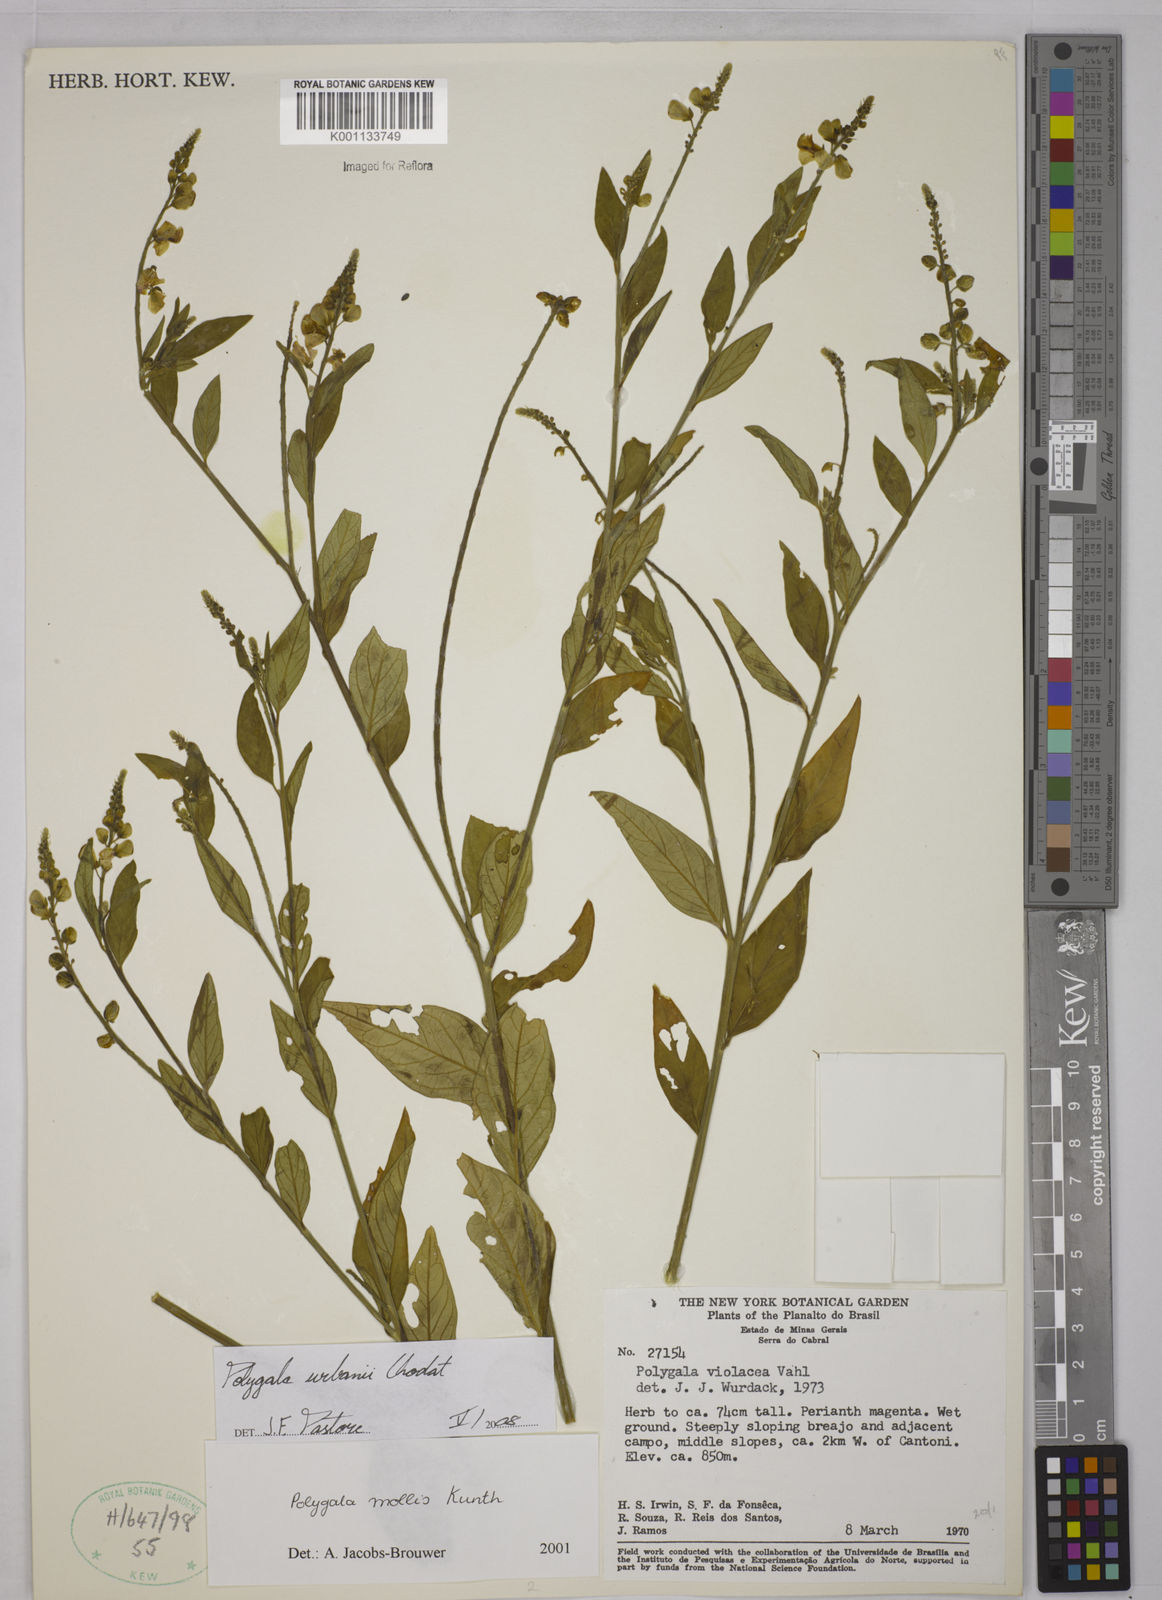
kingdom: Plantae
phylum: Tracheophyta
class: Magnoliopsida
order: Fabales
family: Polygalaceae
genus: Asemeia
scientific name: Asemeia monninoides
